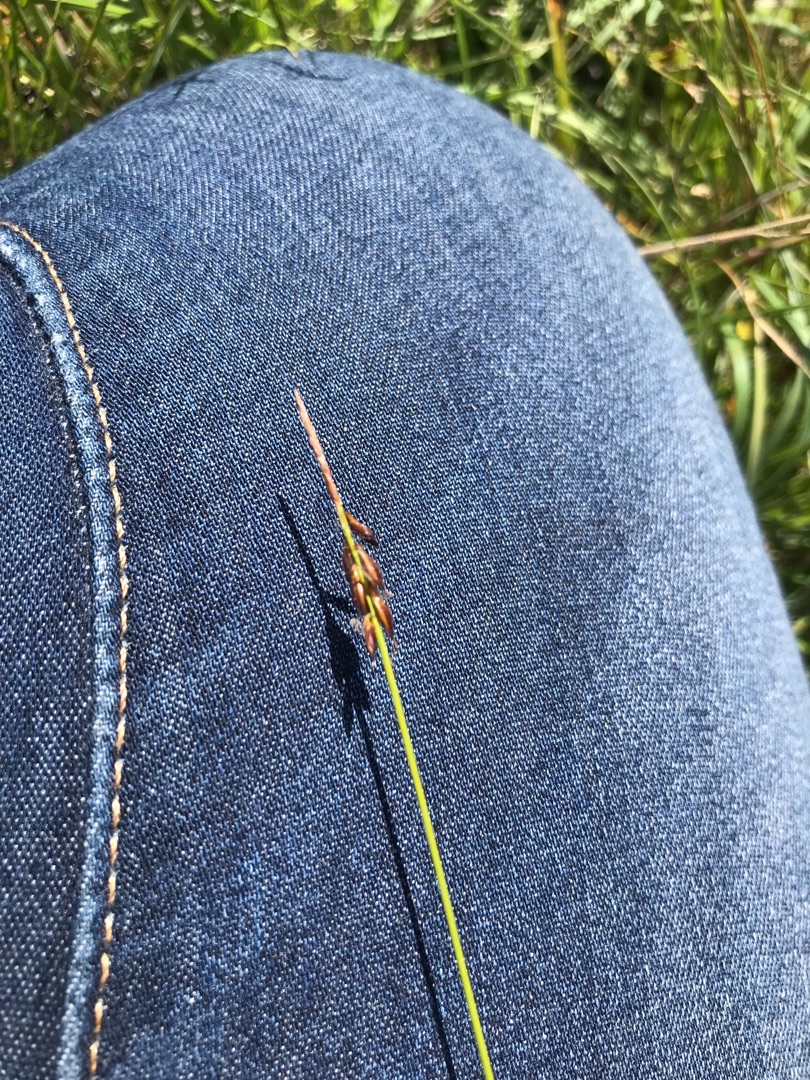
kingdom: Plantae
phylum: Tracheophyta
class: Liliopsida
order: Poales
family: Cyperaceae
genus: Carex
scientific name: Carex pulicaris
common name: Loppe-star
